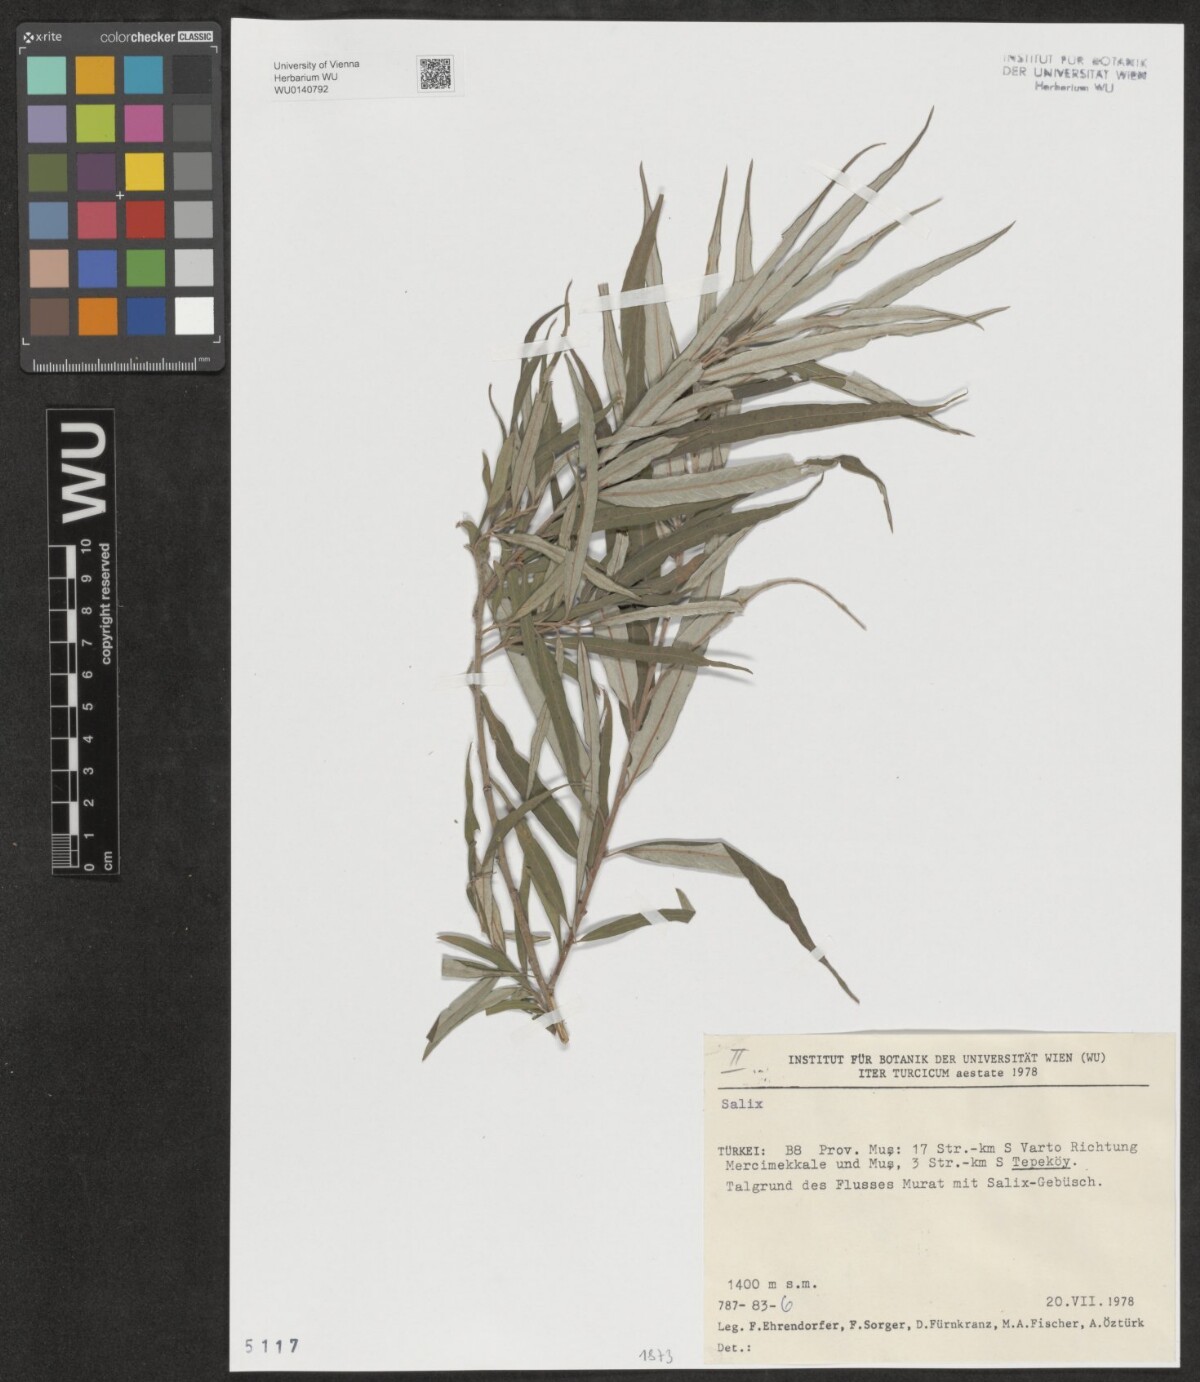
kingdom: Plantae
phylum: Tracheophyta
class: Magnoliopsida
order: Malpighiales
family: Salicaceae
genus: Salix
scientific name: Salix
